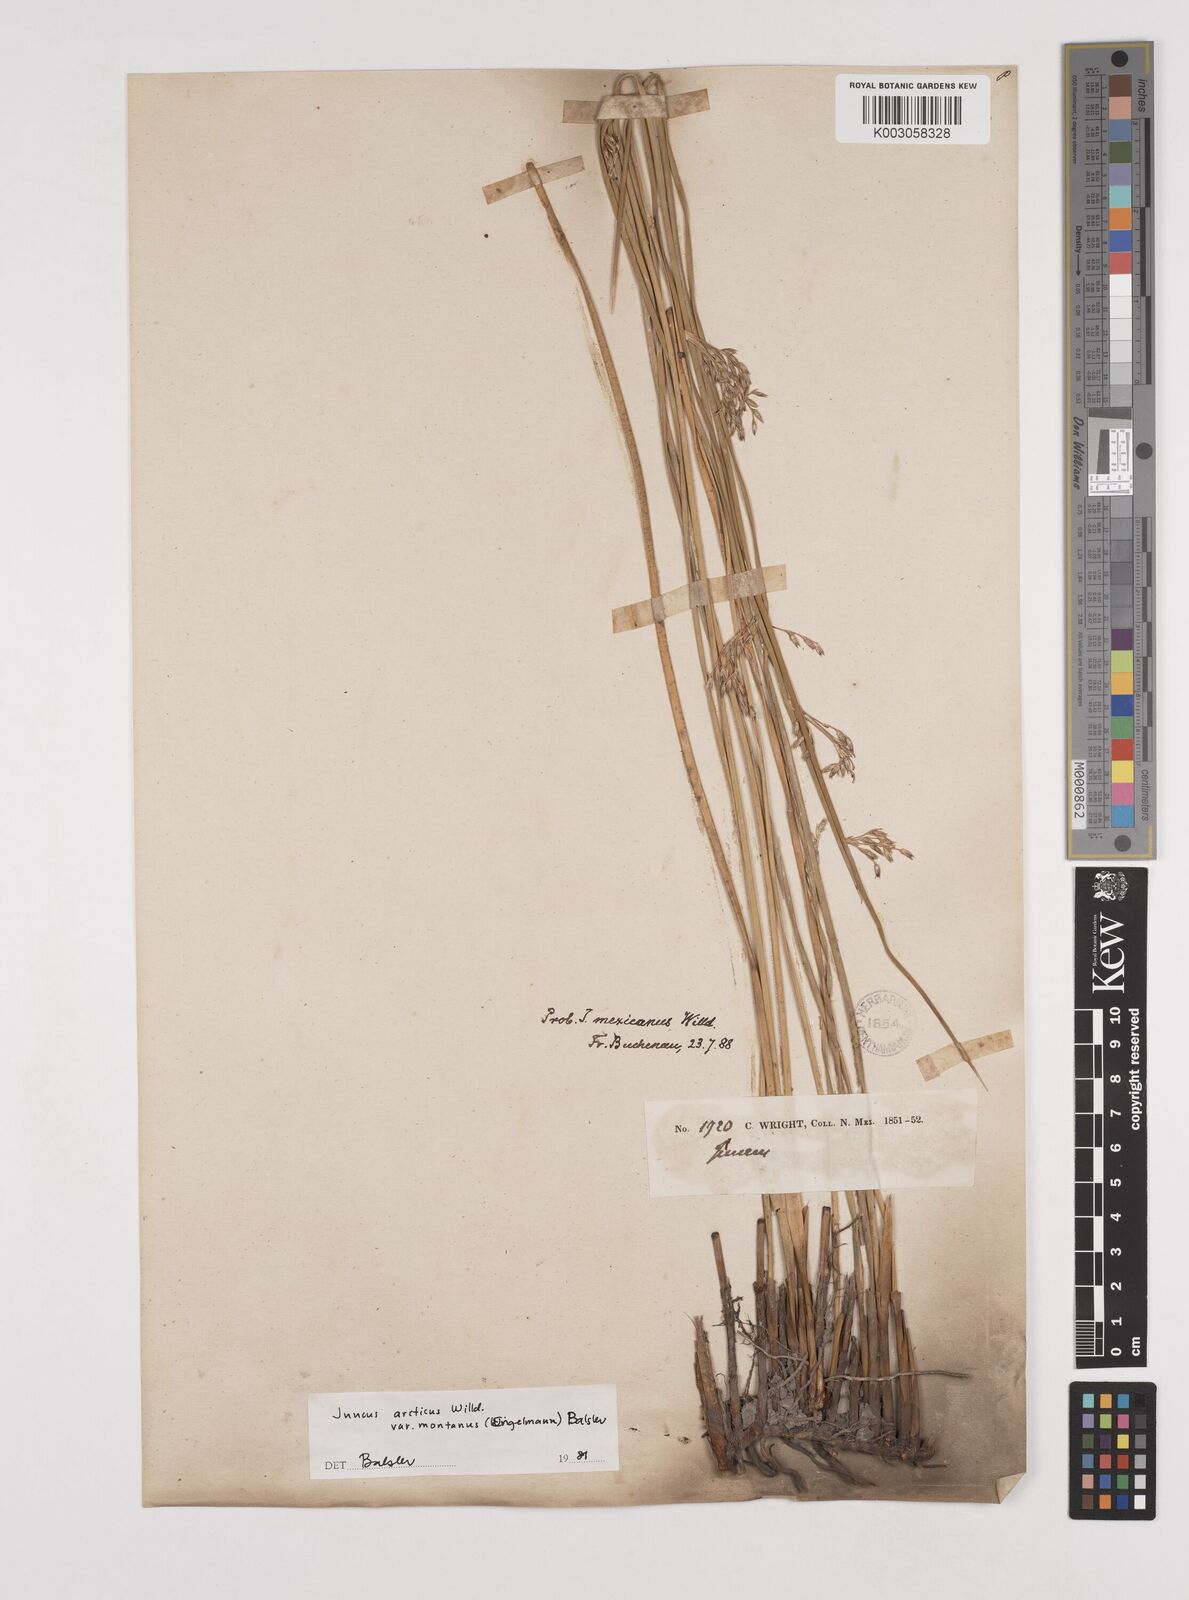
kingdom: Plantae
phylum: Tracheophyta
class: Liliopsida
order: Poales
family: Juncaceae
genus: Juncus
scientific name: Juncus arcticus
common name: Arctic rush
